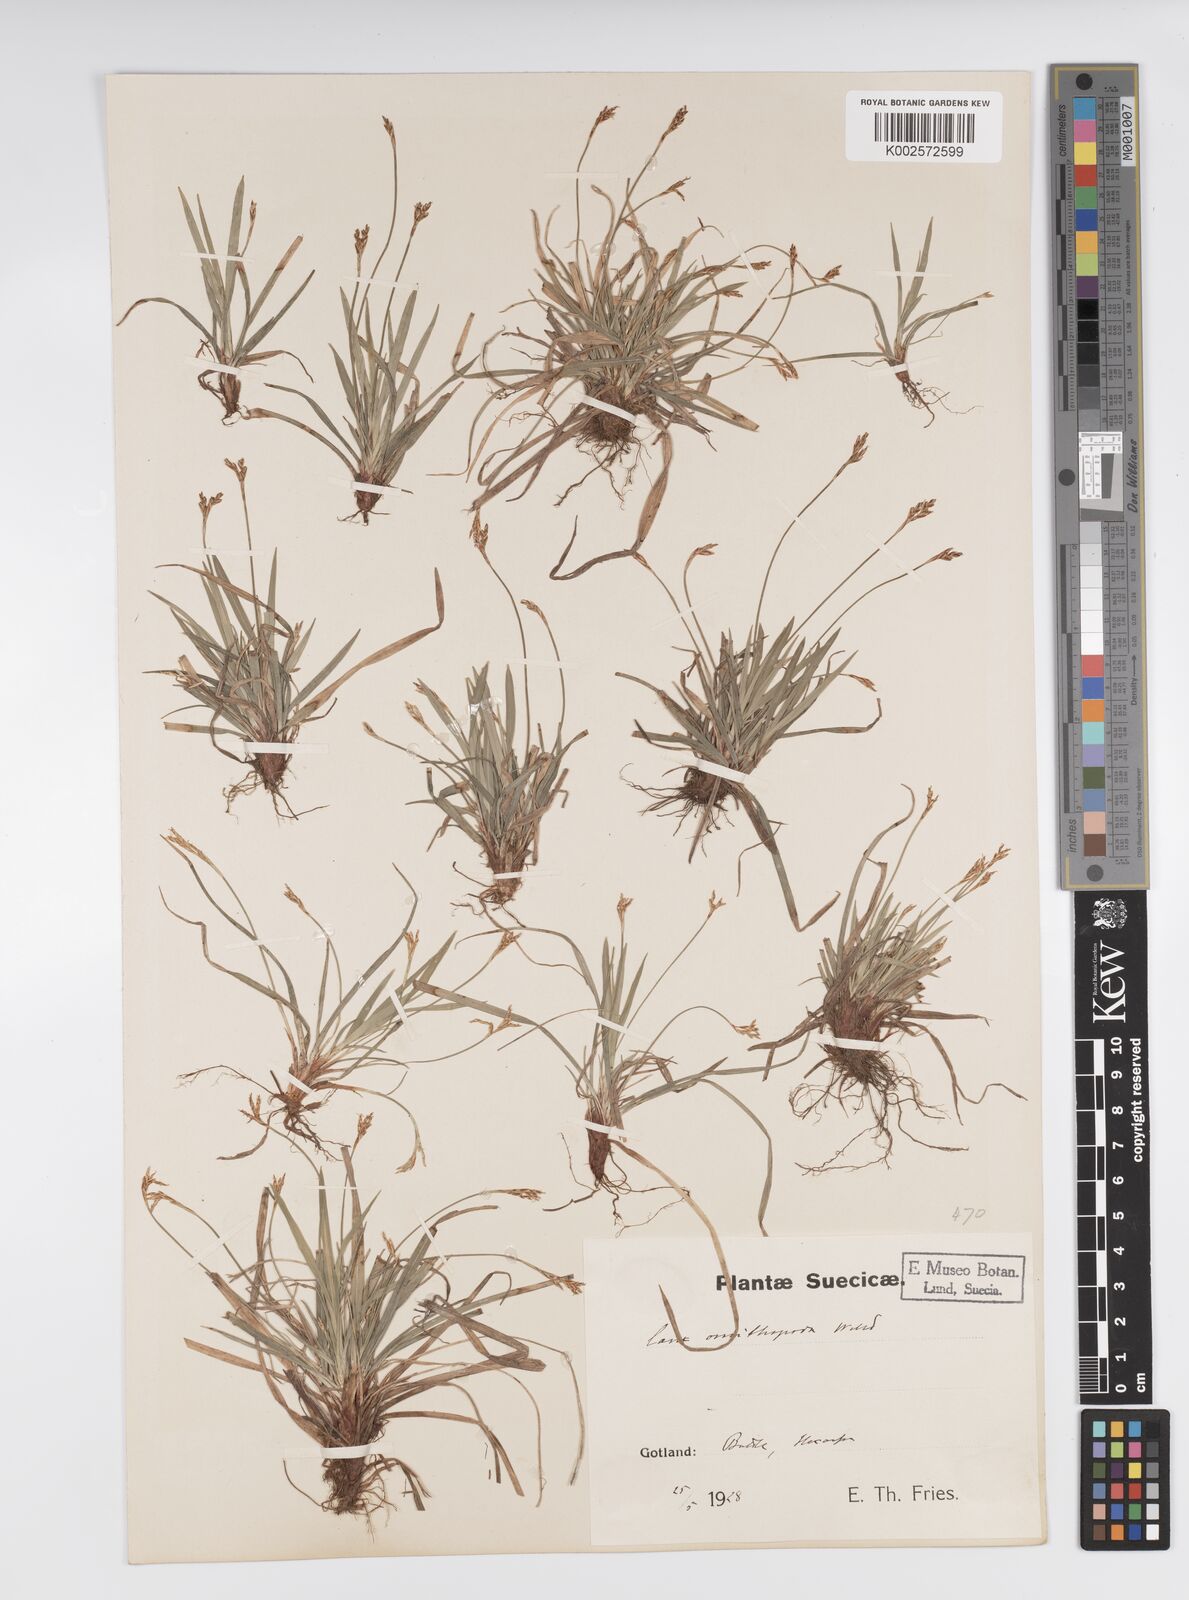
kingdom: Plantae
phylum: Tracheophyta
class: Liliopsida
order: Poales
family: Cyperaceae
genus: Carex
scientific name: Carex ornithopoda
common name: Bird's-foot sedge
